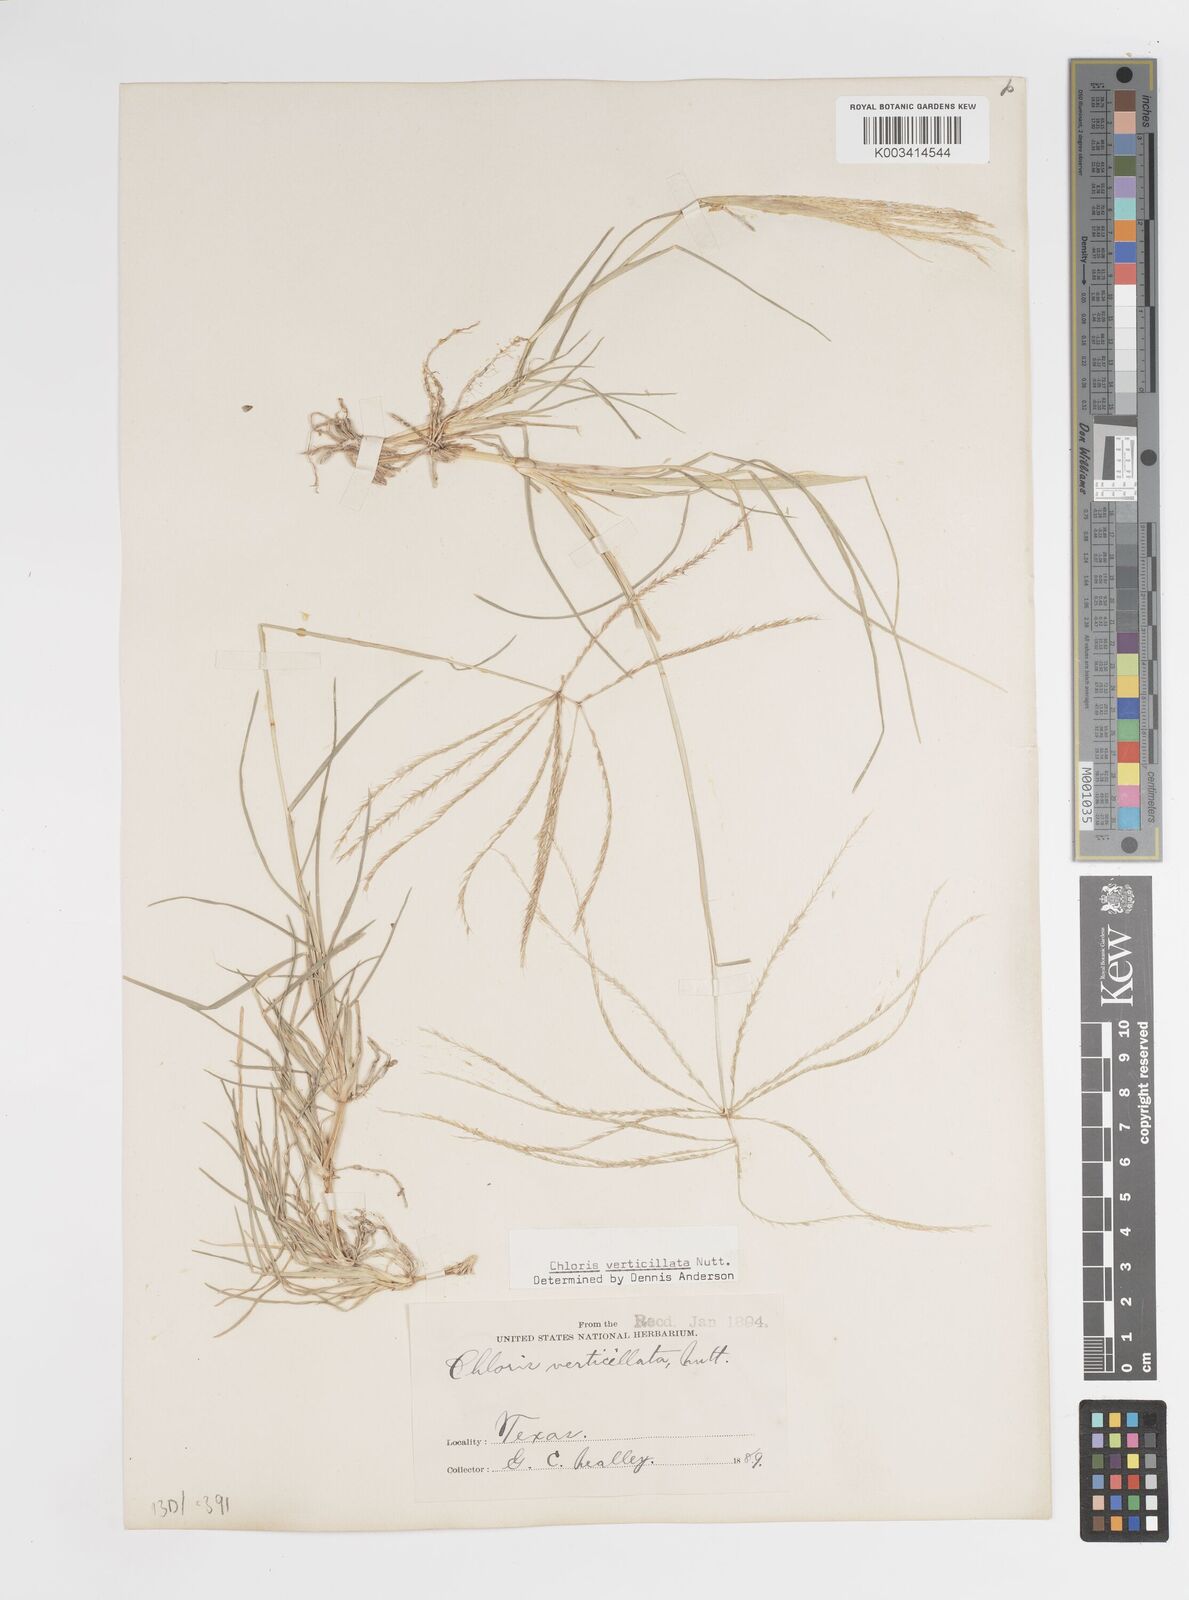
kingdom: Plantae
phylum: Tracheophyta
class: Liliopsida
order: Poales
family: Poaceae
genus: Chloris
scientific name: Chloris verticillata
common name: Tumble windmill grass
